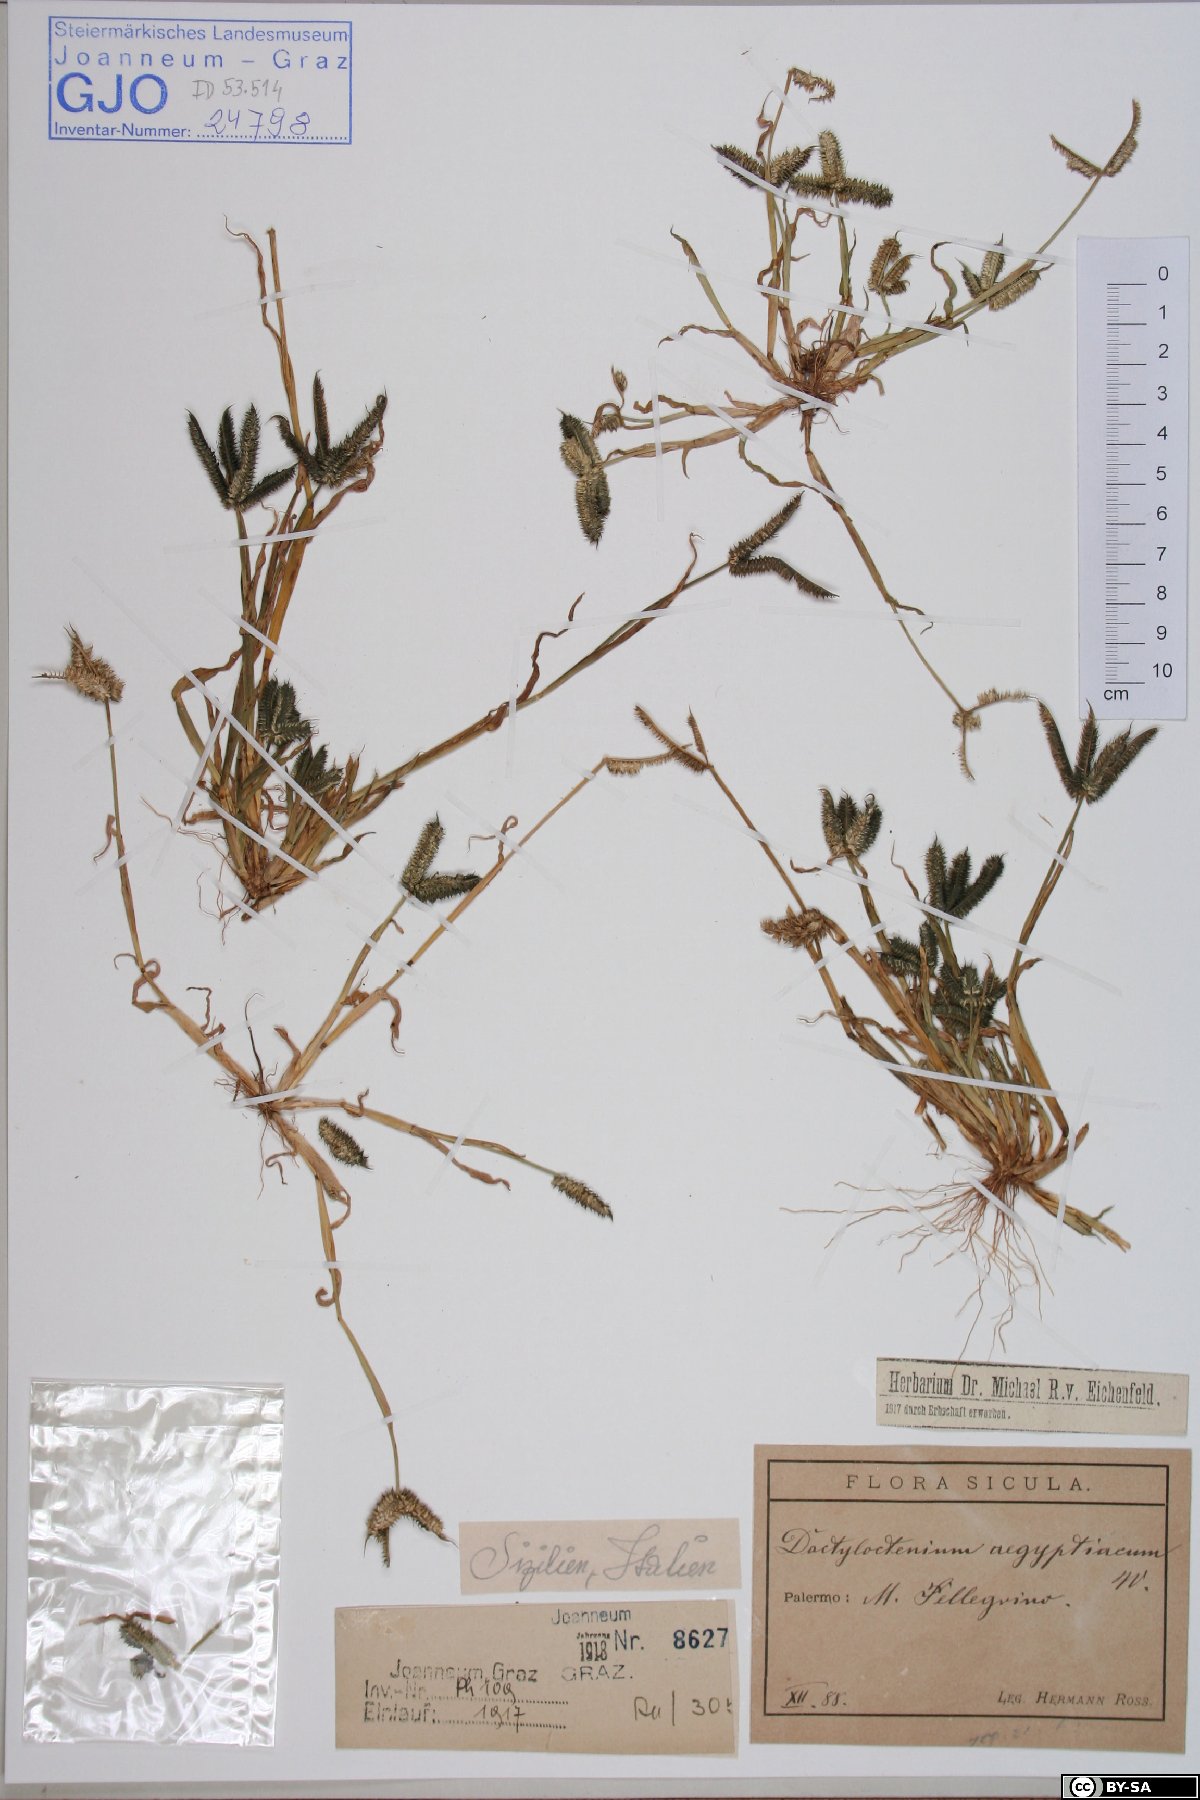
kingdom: Plantae
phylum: Tracheophyta
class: Liliopsida
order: Poales
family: Poaceae
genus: Dactyloctenium
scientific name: Dactyloctenium aegyptium
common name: Egyptian grass
